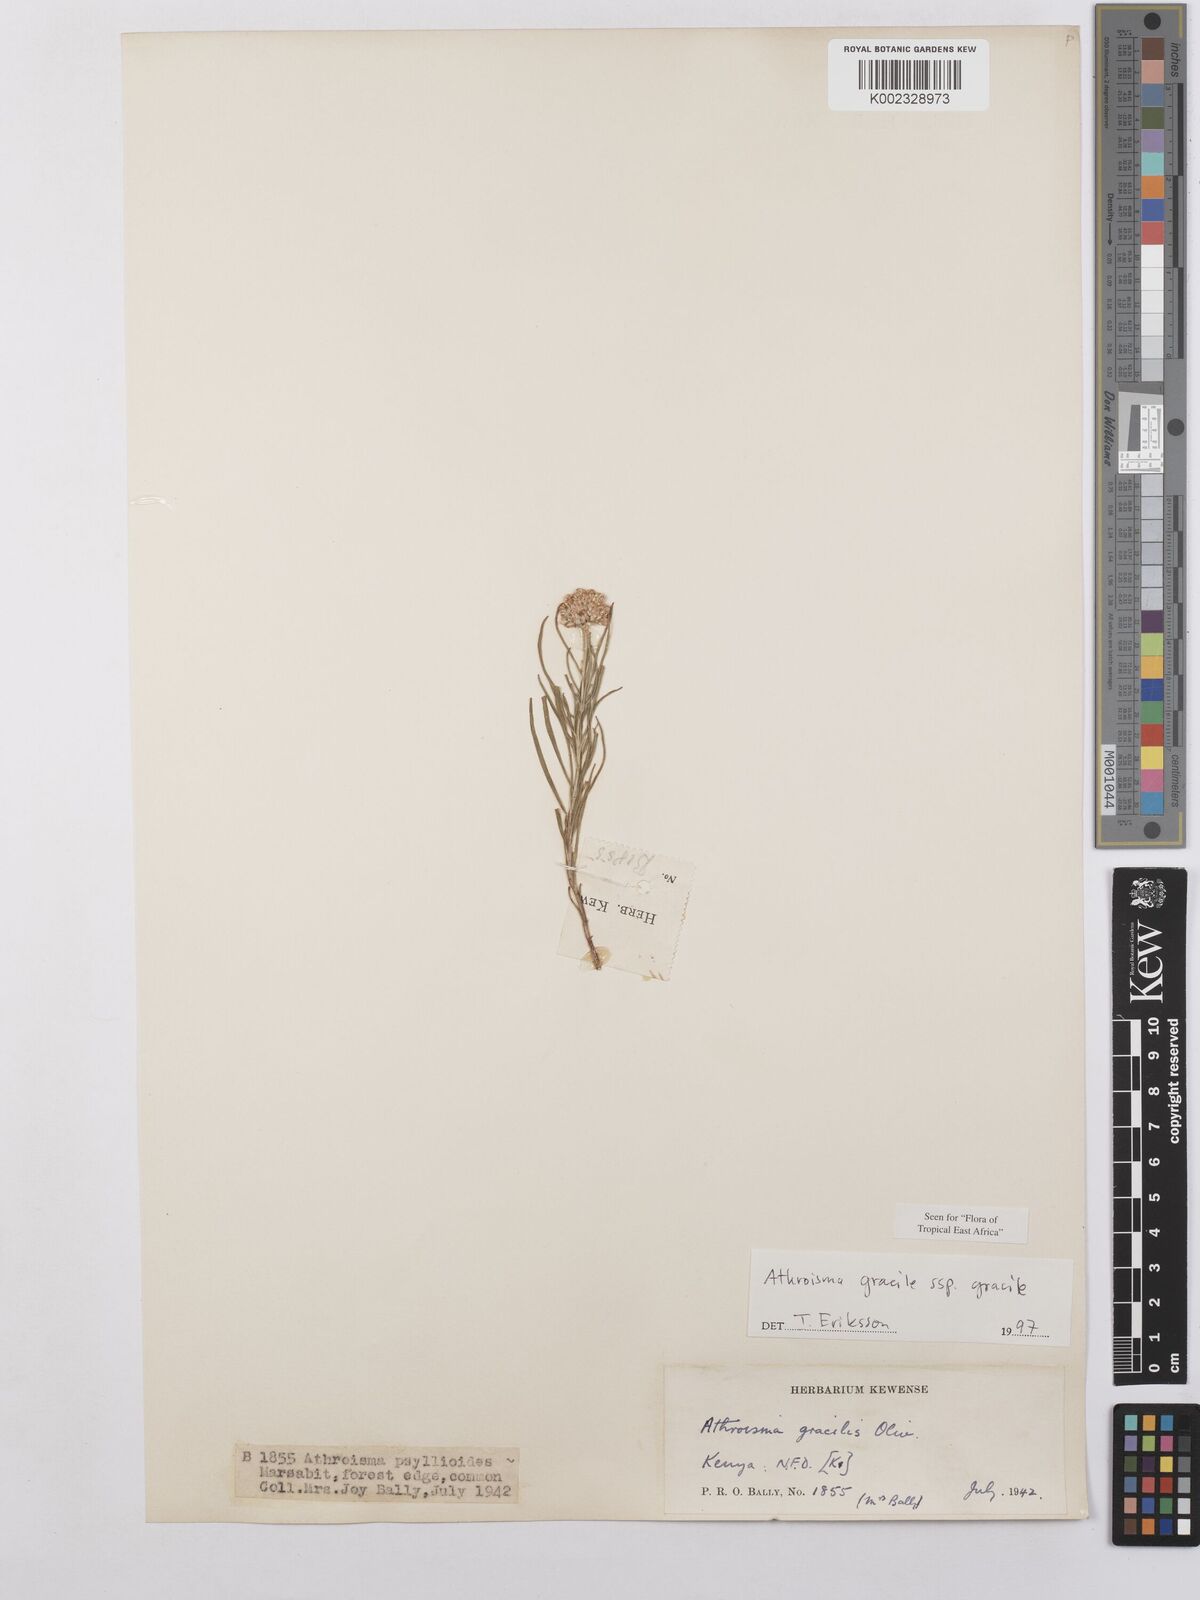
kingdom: Plantae
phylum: Tracheophyta
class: Magnoliopsida
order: Asterales
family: Asteraceae
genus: Athroisma
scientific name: Athroisma gracile
